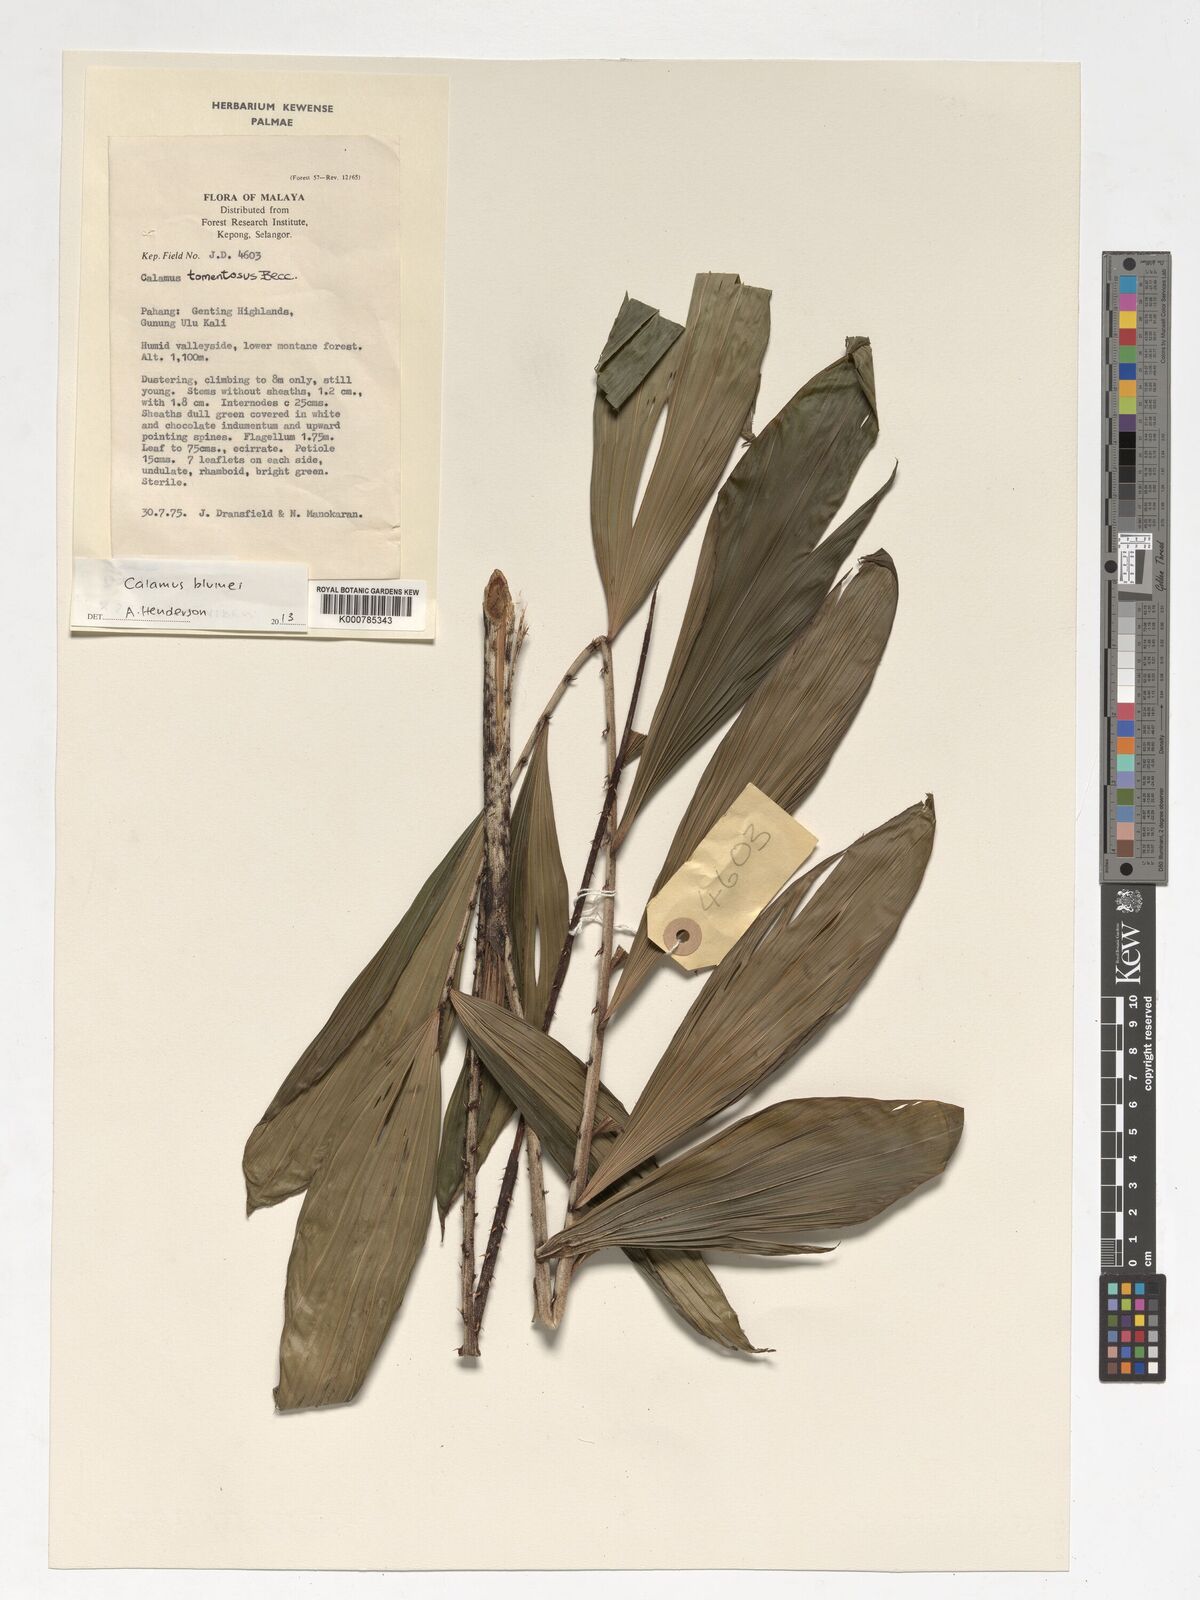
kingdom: Plantae
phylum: Tracheophyta
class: Liliopsida
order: Arecales
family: Arecaceae
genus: Calamus
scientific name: Calamus rhomboideus
